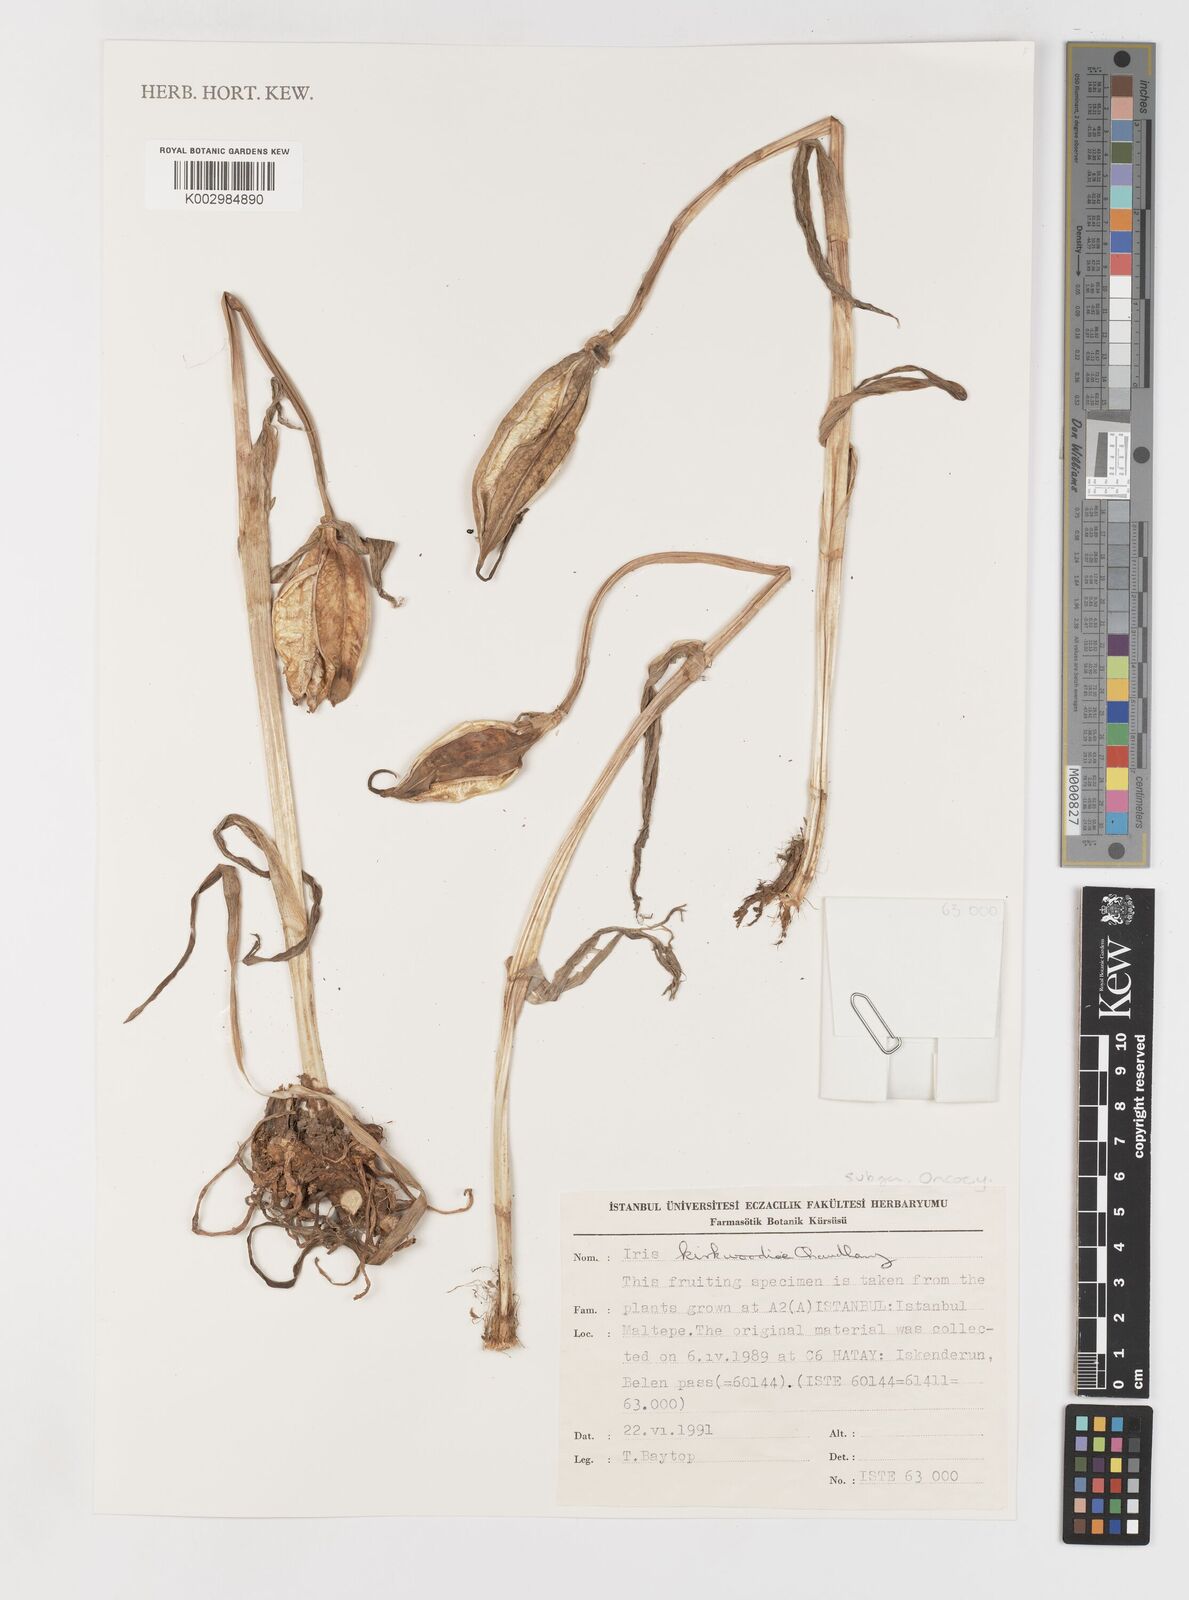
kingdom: Plantae
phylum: Tracheophyta
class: Liliopsida
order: Asparagales
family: Iridaceae
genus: Iris
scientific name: Iris kirkwoodiae
